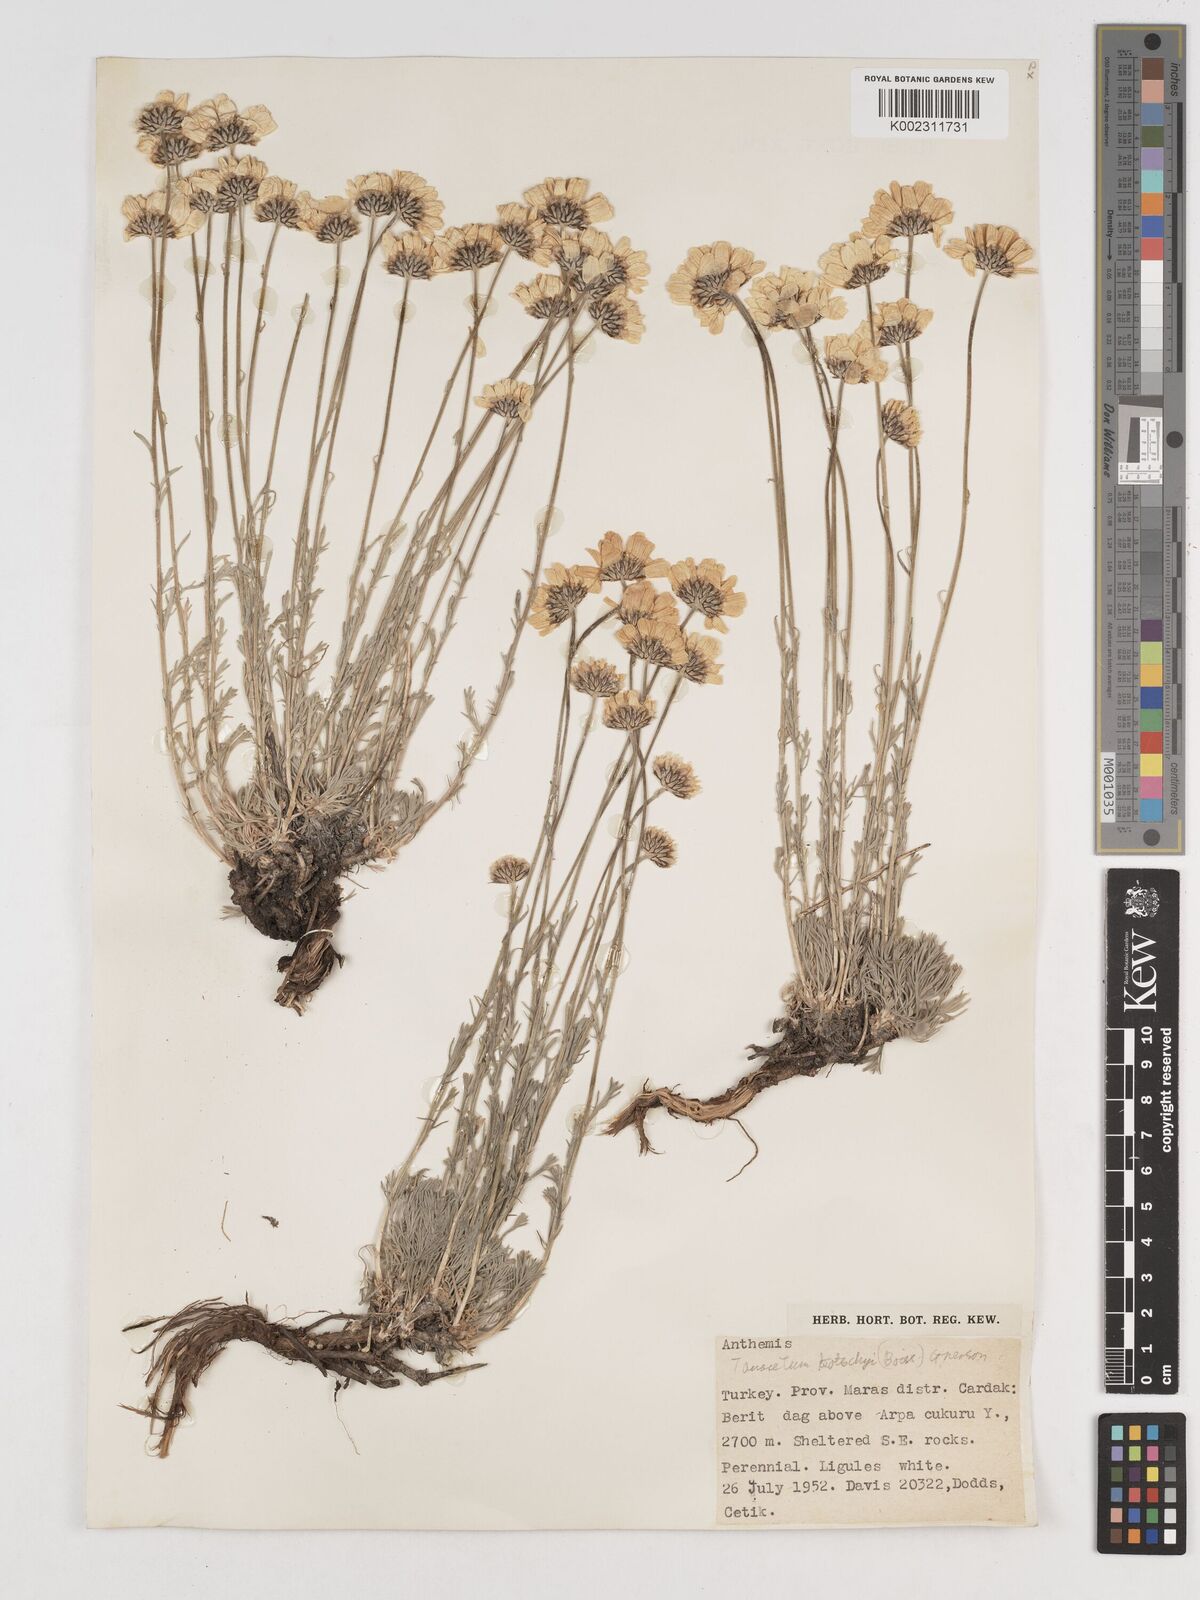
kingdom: Plantae
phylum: Tracheophyta
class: Magnoliopsida
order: Asterales
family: Asteraceae
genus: Tanacetum
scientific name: Tanacetum kotschyi
